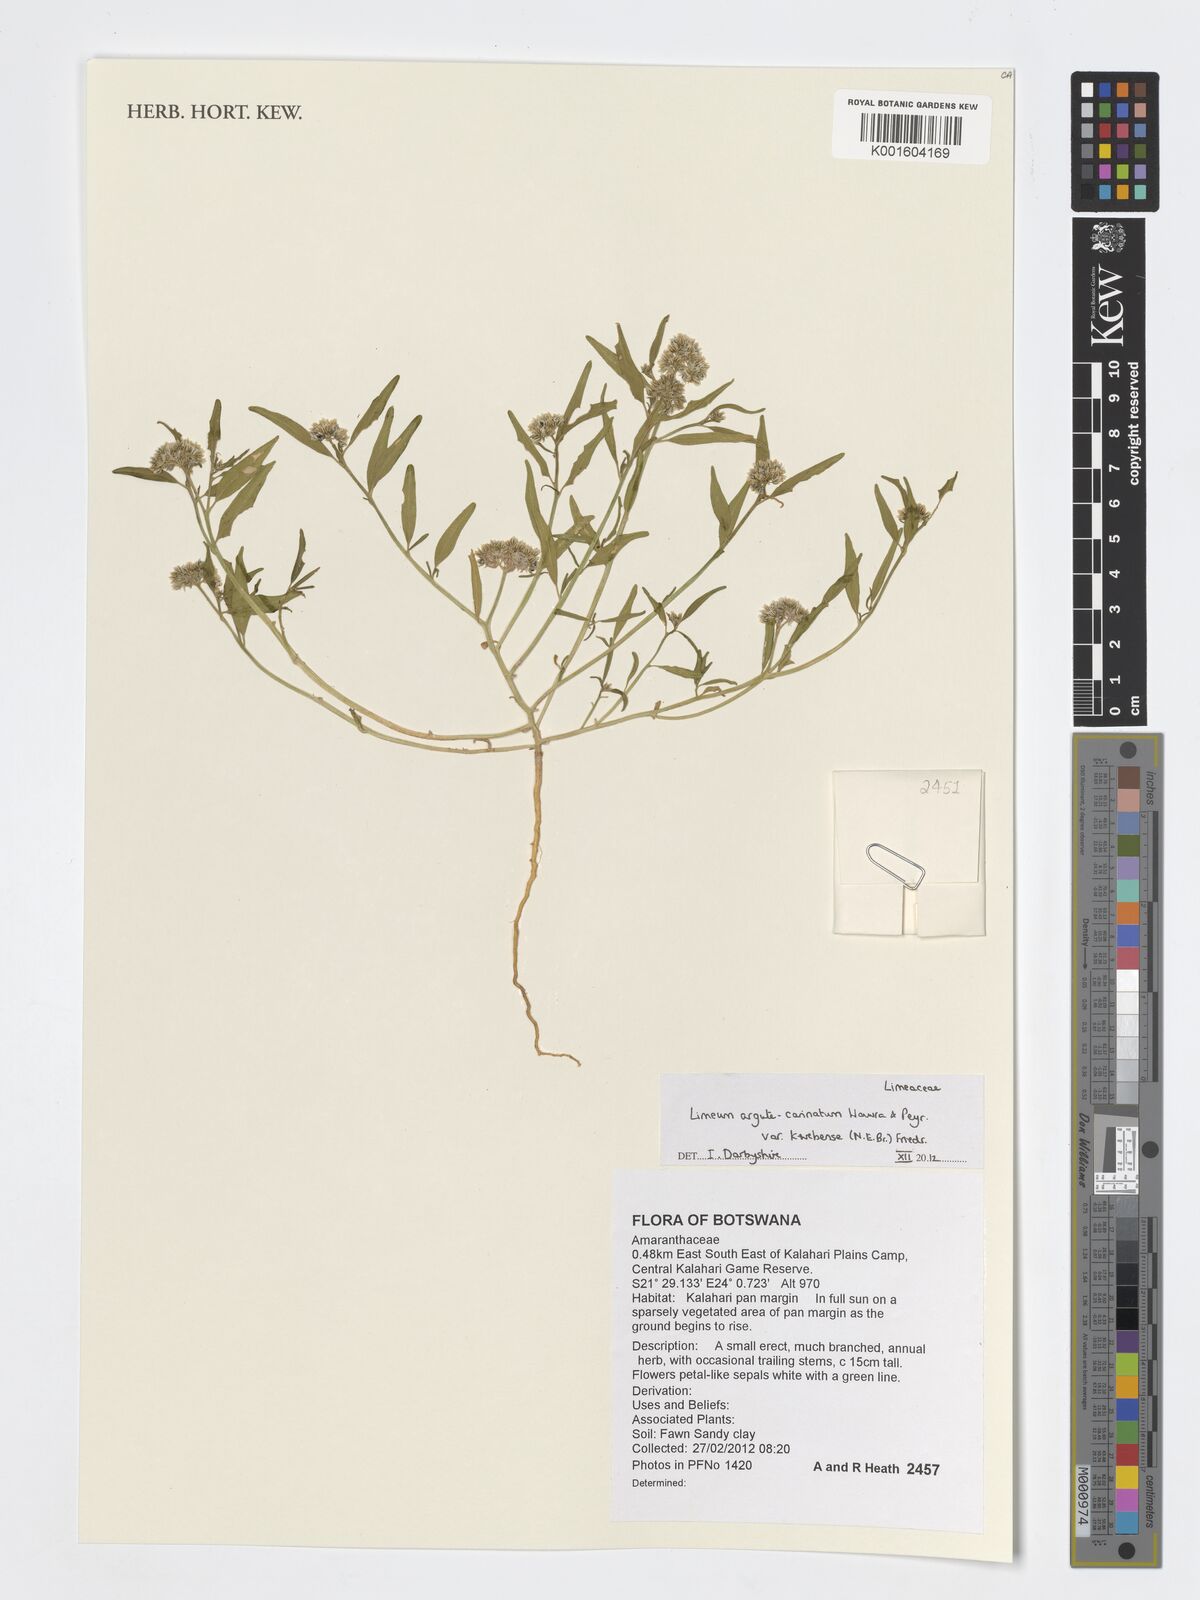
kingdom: Plantae
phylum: Tracheophyta
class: Magnoliopsida
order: Caryophyllales
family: Limeaceae
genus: Limeum
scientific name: Limeum argute-carinatum
